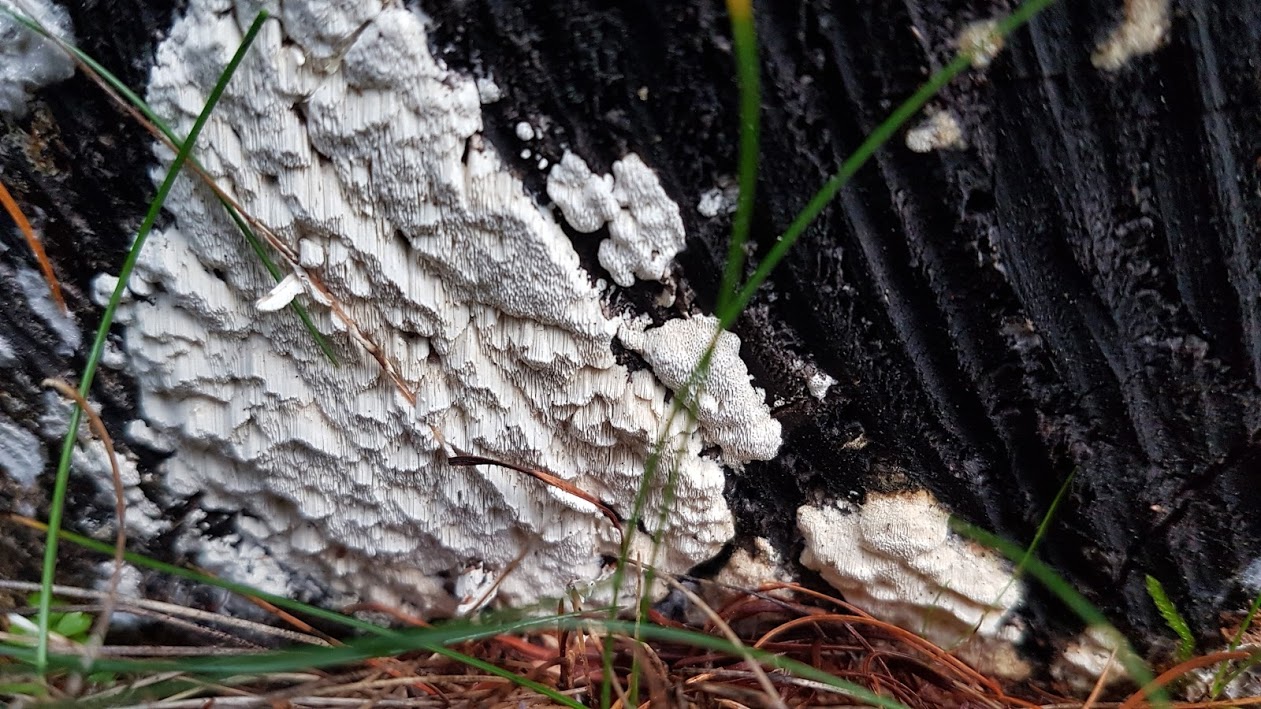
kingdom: Fungi
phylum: Basidiomycota
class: Agaricomycetes
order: Polyporales
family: Fomitopsidaceae
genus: Neoantrodia
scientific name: Neoantrodia serialis
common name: række-sejporesvamp
